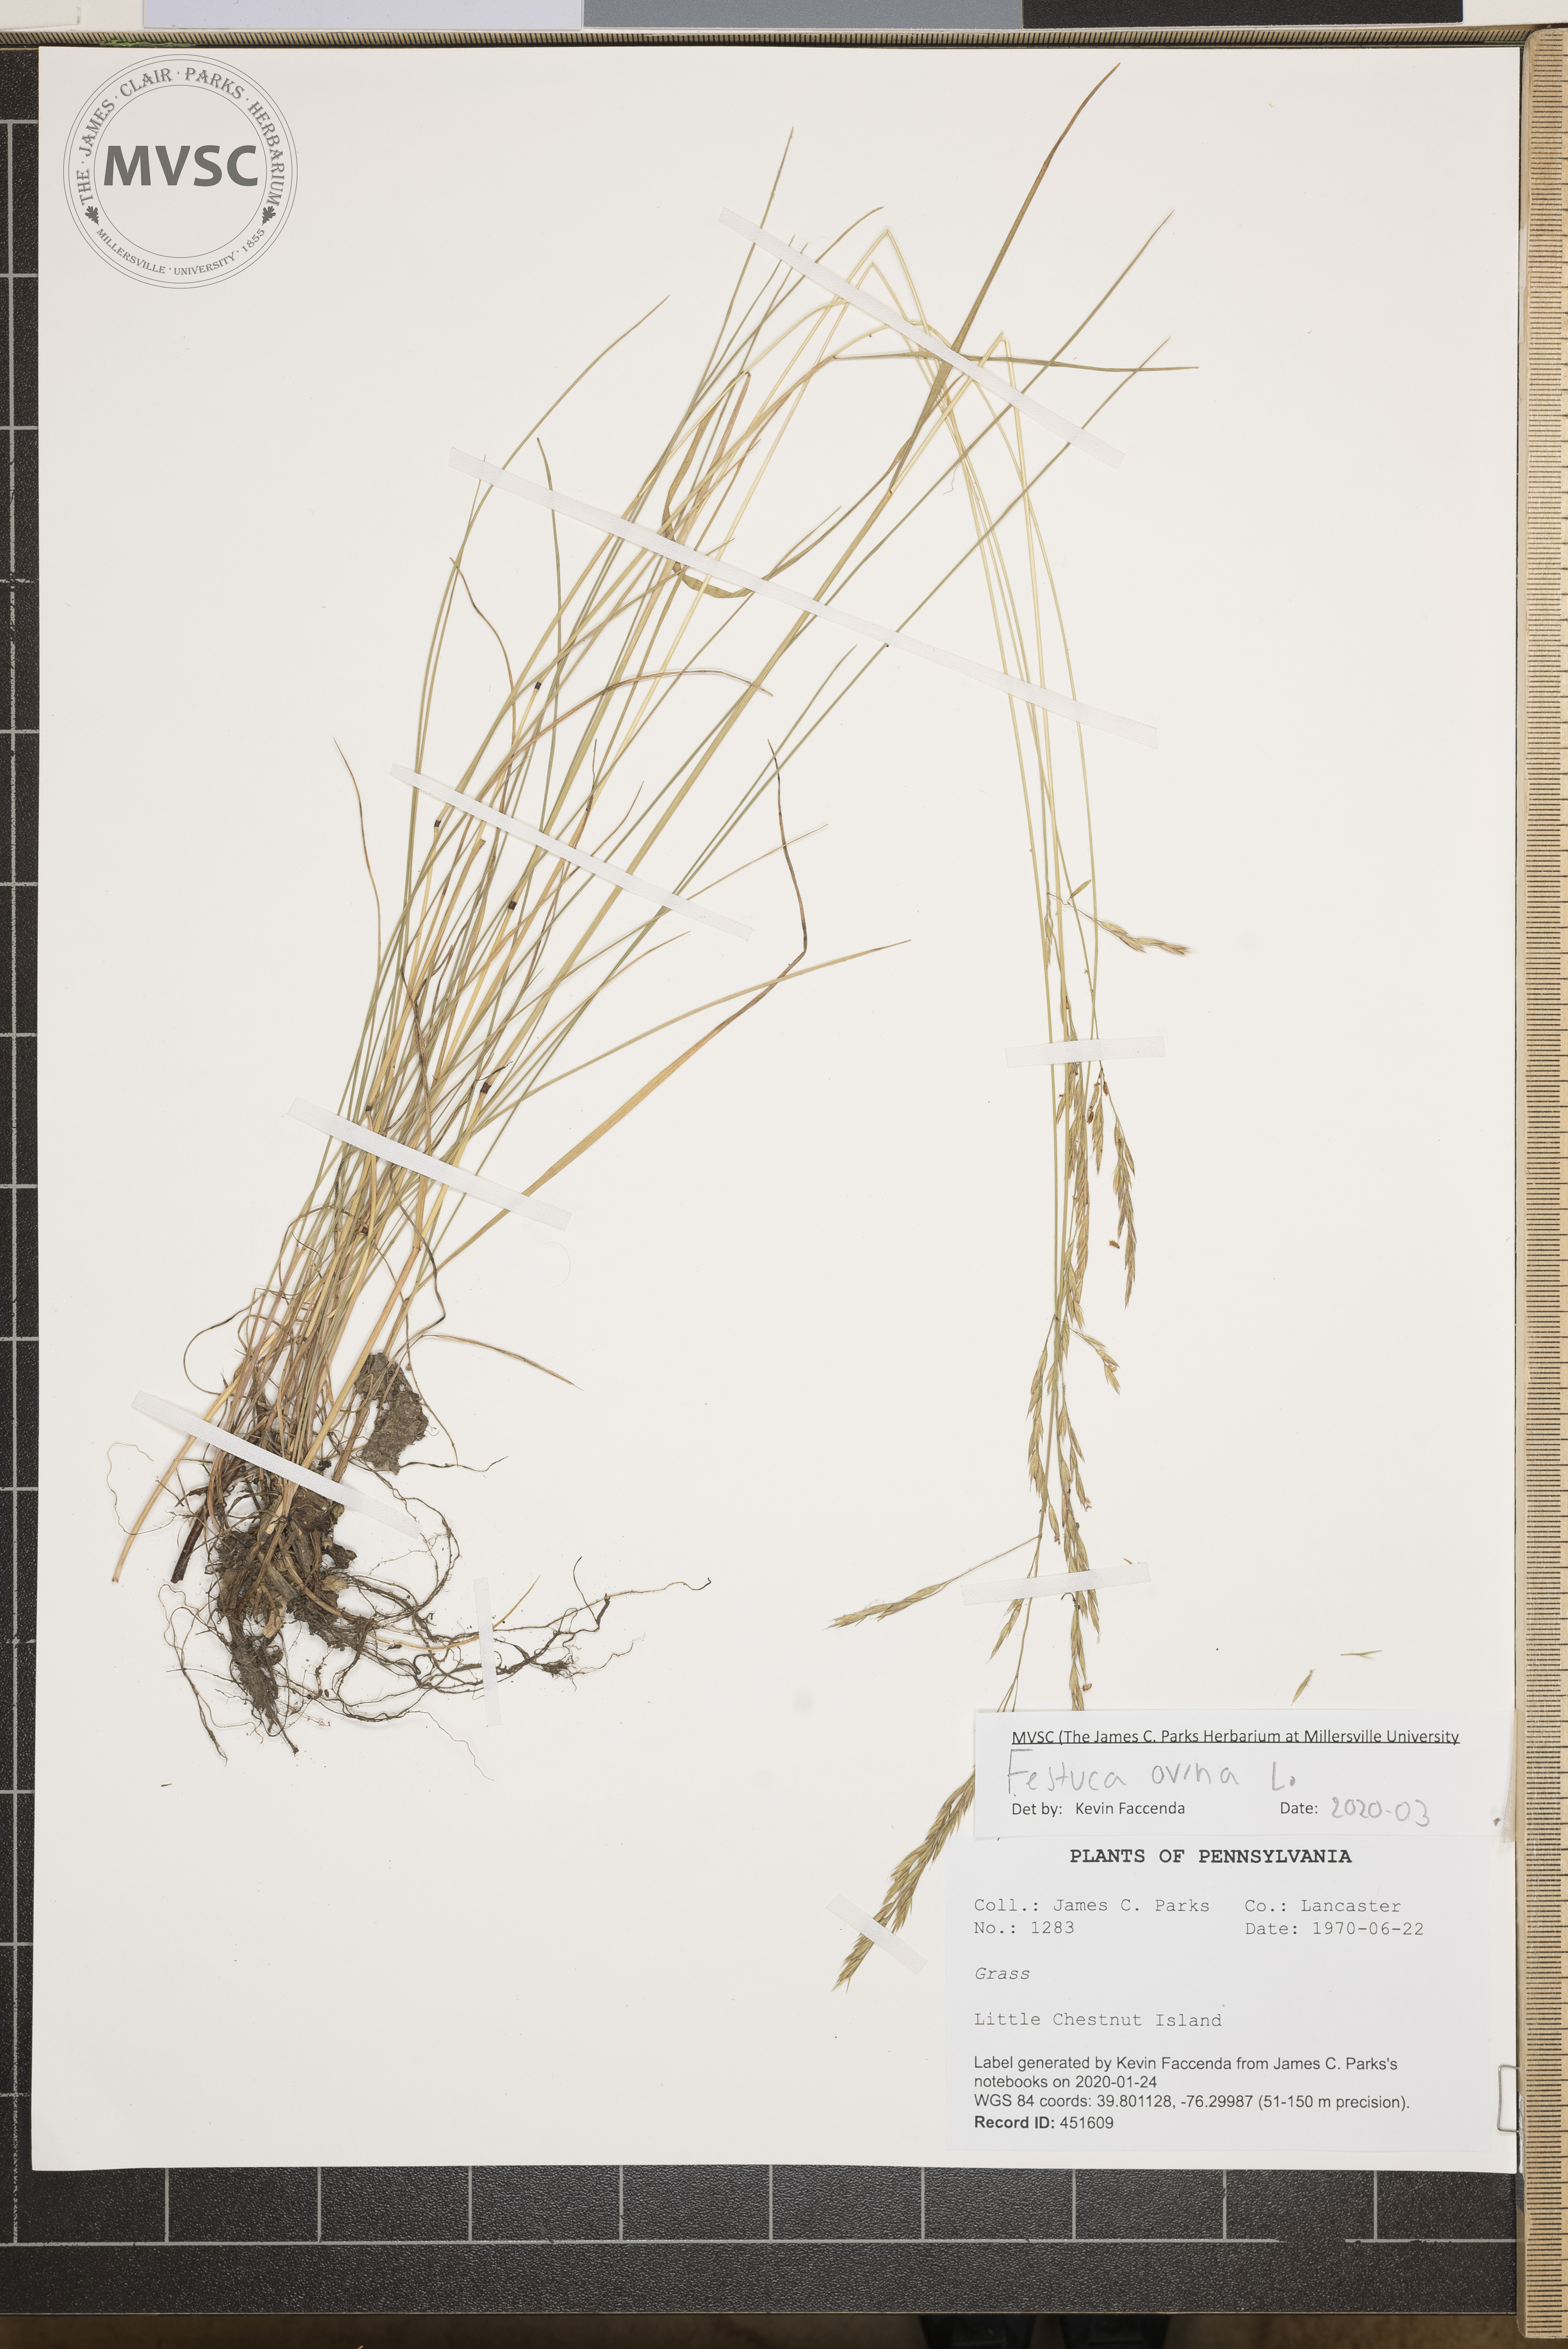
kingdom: Plantae
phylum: Tracheophyta
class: Liliopsida
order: Poales
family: Poaceae
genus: Festuca
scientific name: Festuca ovina
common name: Sheep fescue
